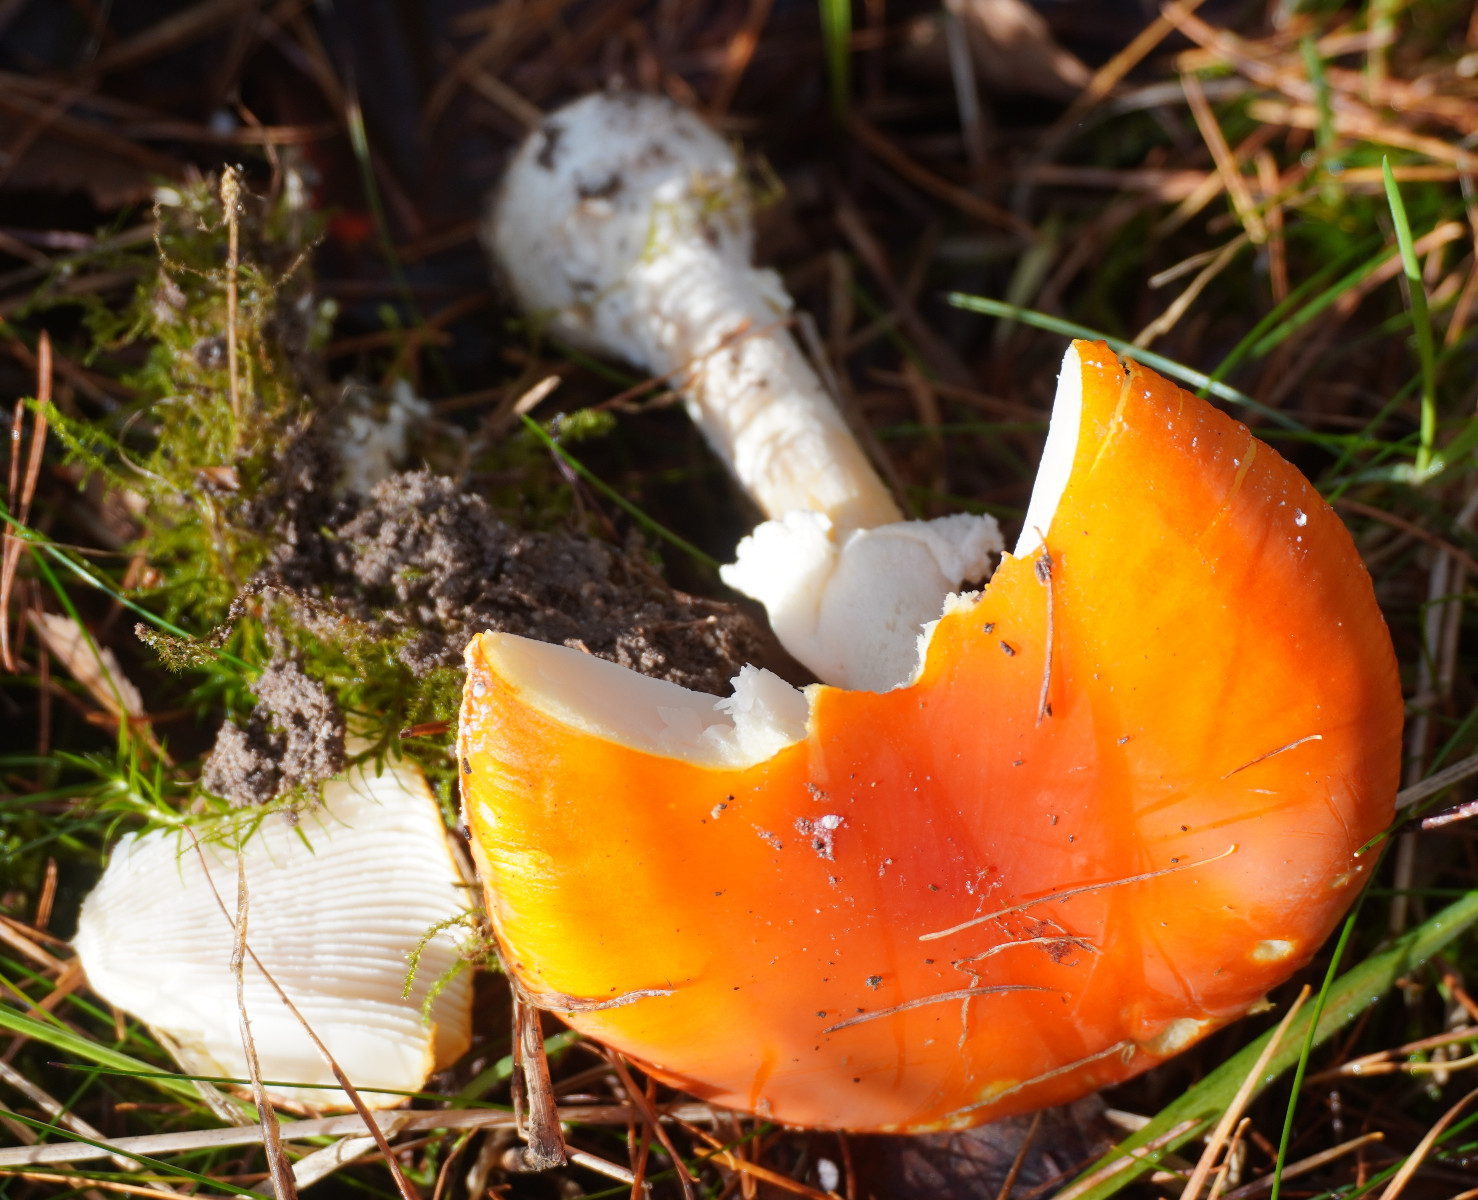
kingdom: Fungi
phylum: Basidiomycota
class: Agaricomycetes
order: Agaricales
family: Amanitaceae
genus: Amanita
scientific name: Amanita muscaria
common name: rød fluesvamp
